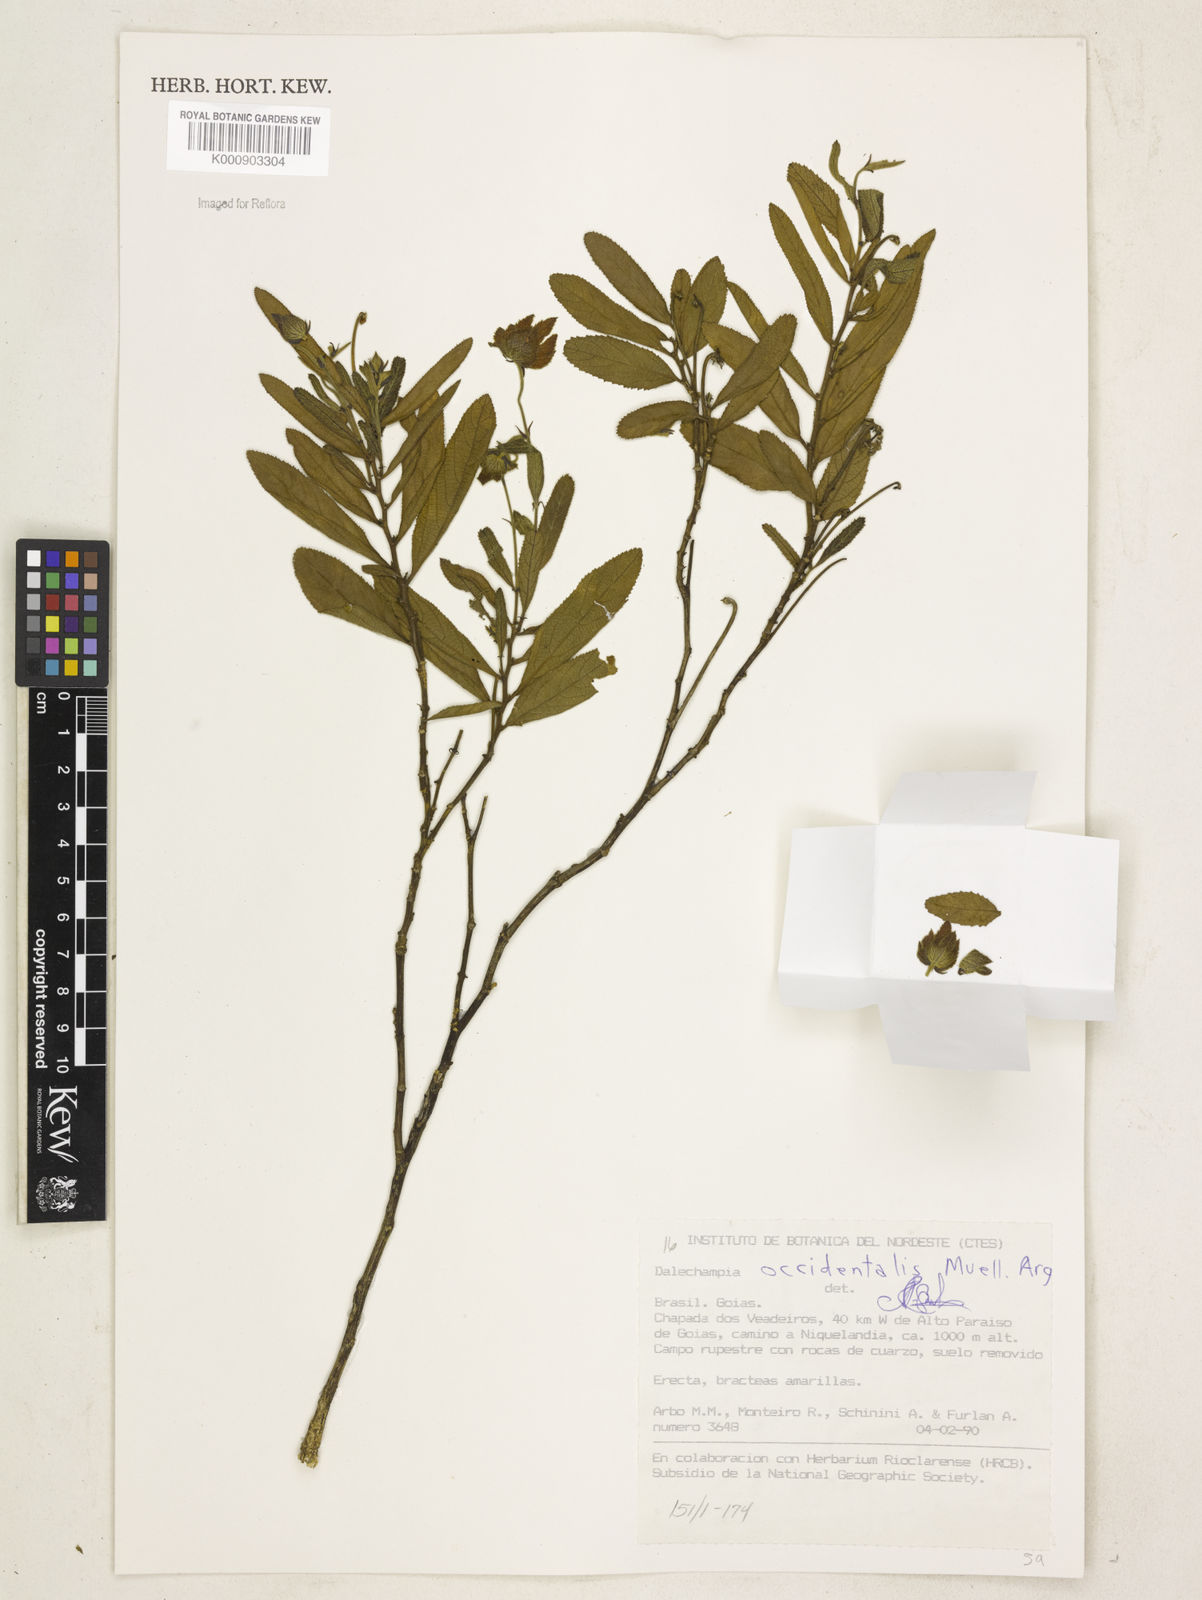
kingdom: Plantae
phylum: Tracheophyta
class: Magnoliopsida
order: Malpighiales
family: Euphorbiaceae
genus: Dalechampia
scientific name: Dalechampia
